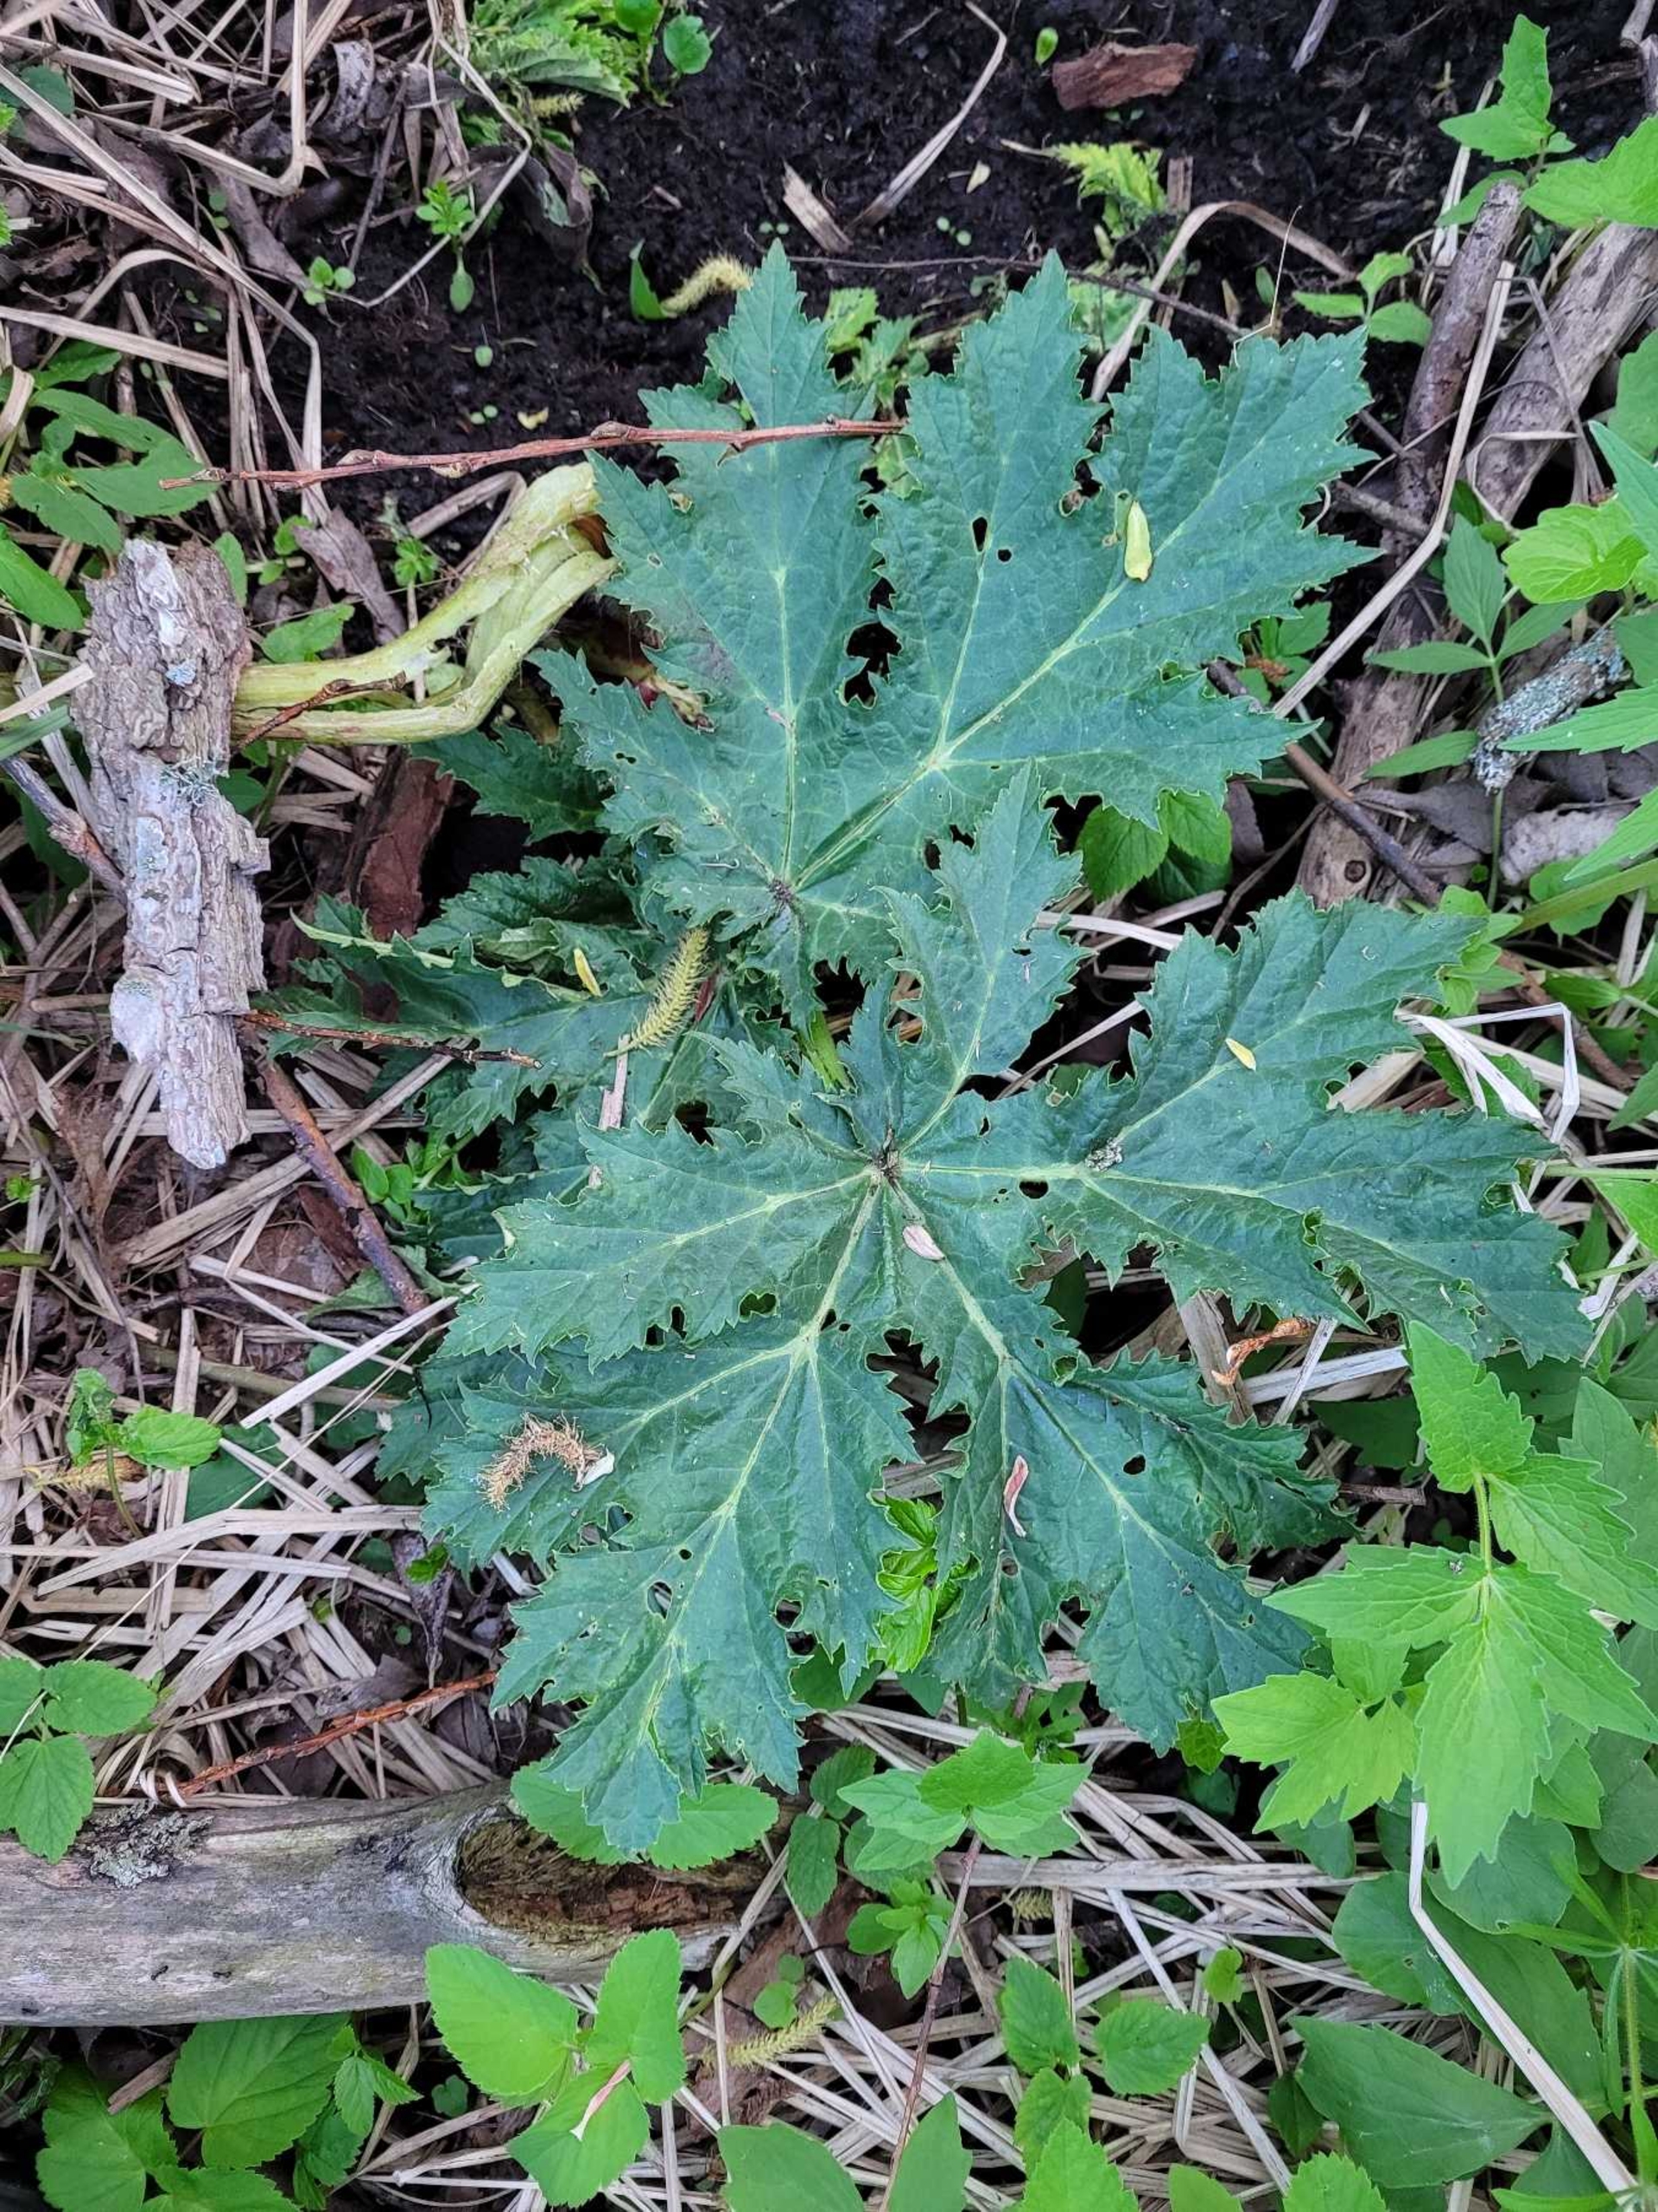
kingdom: Plantae
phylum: Tracheophyta
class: Magnoliopsida
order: Apiales
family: Apiaceae
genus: Heracleum
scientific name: Heracleum mantegazzianum
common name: Kæmpe-bjørneklo
